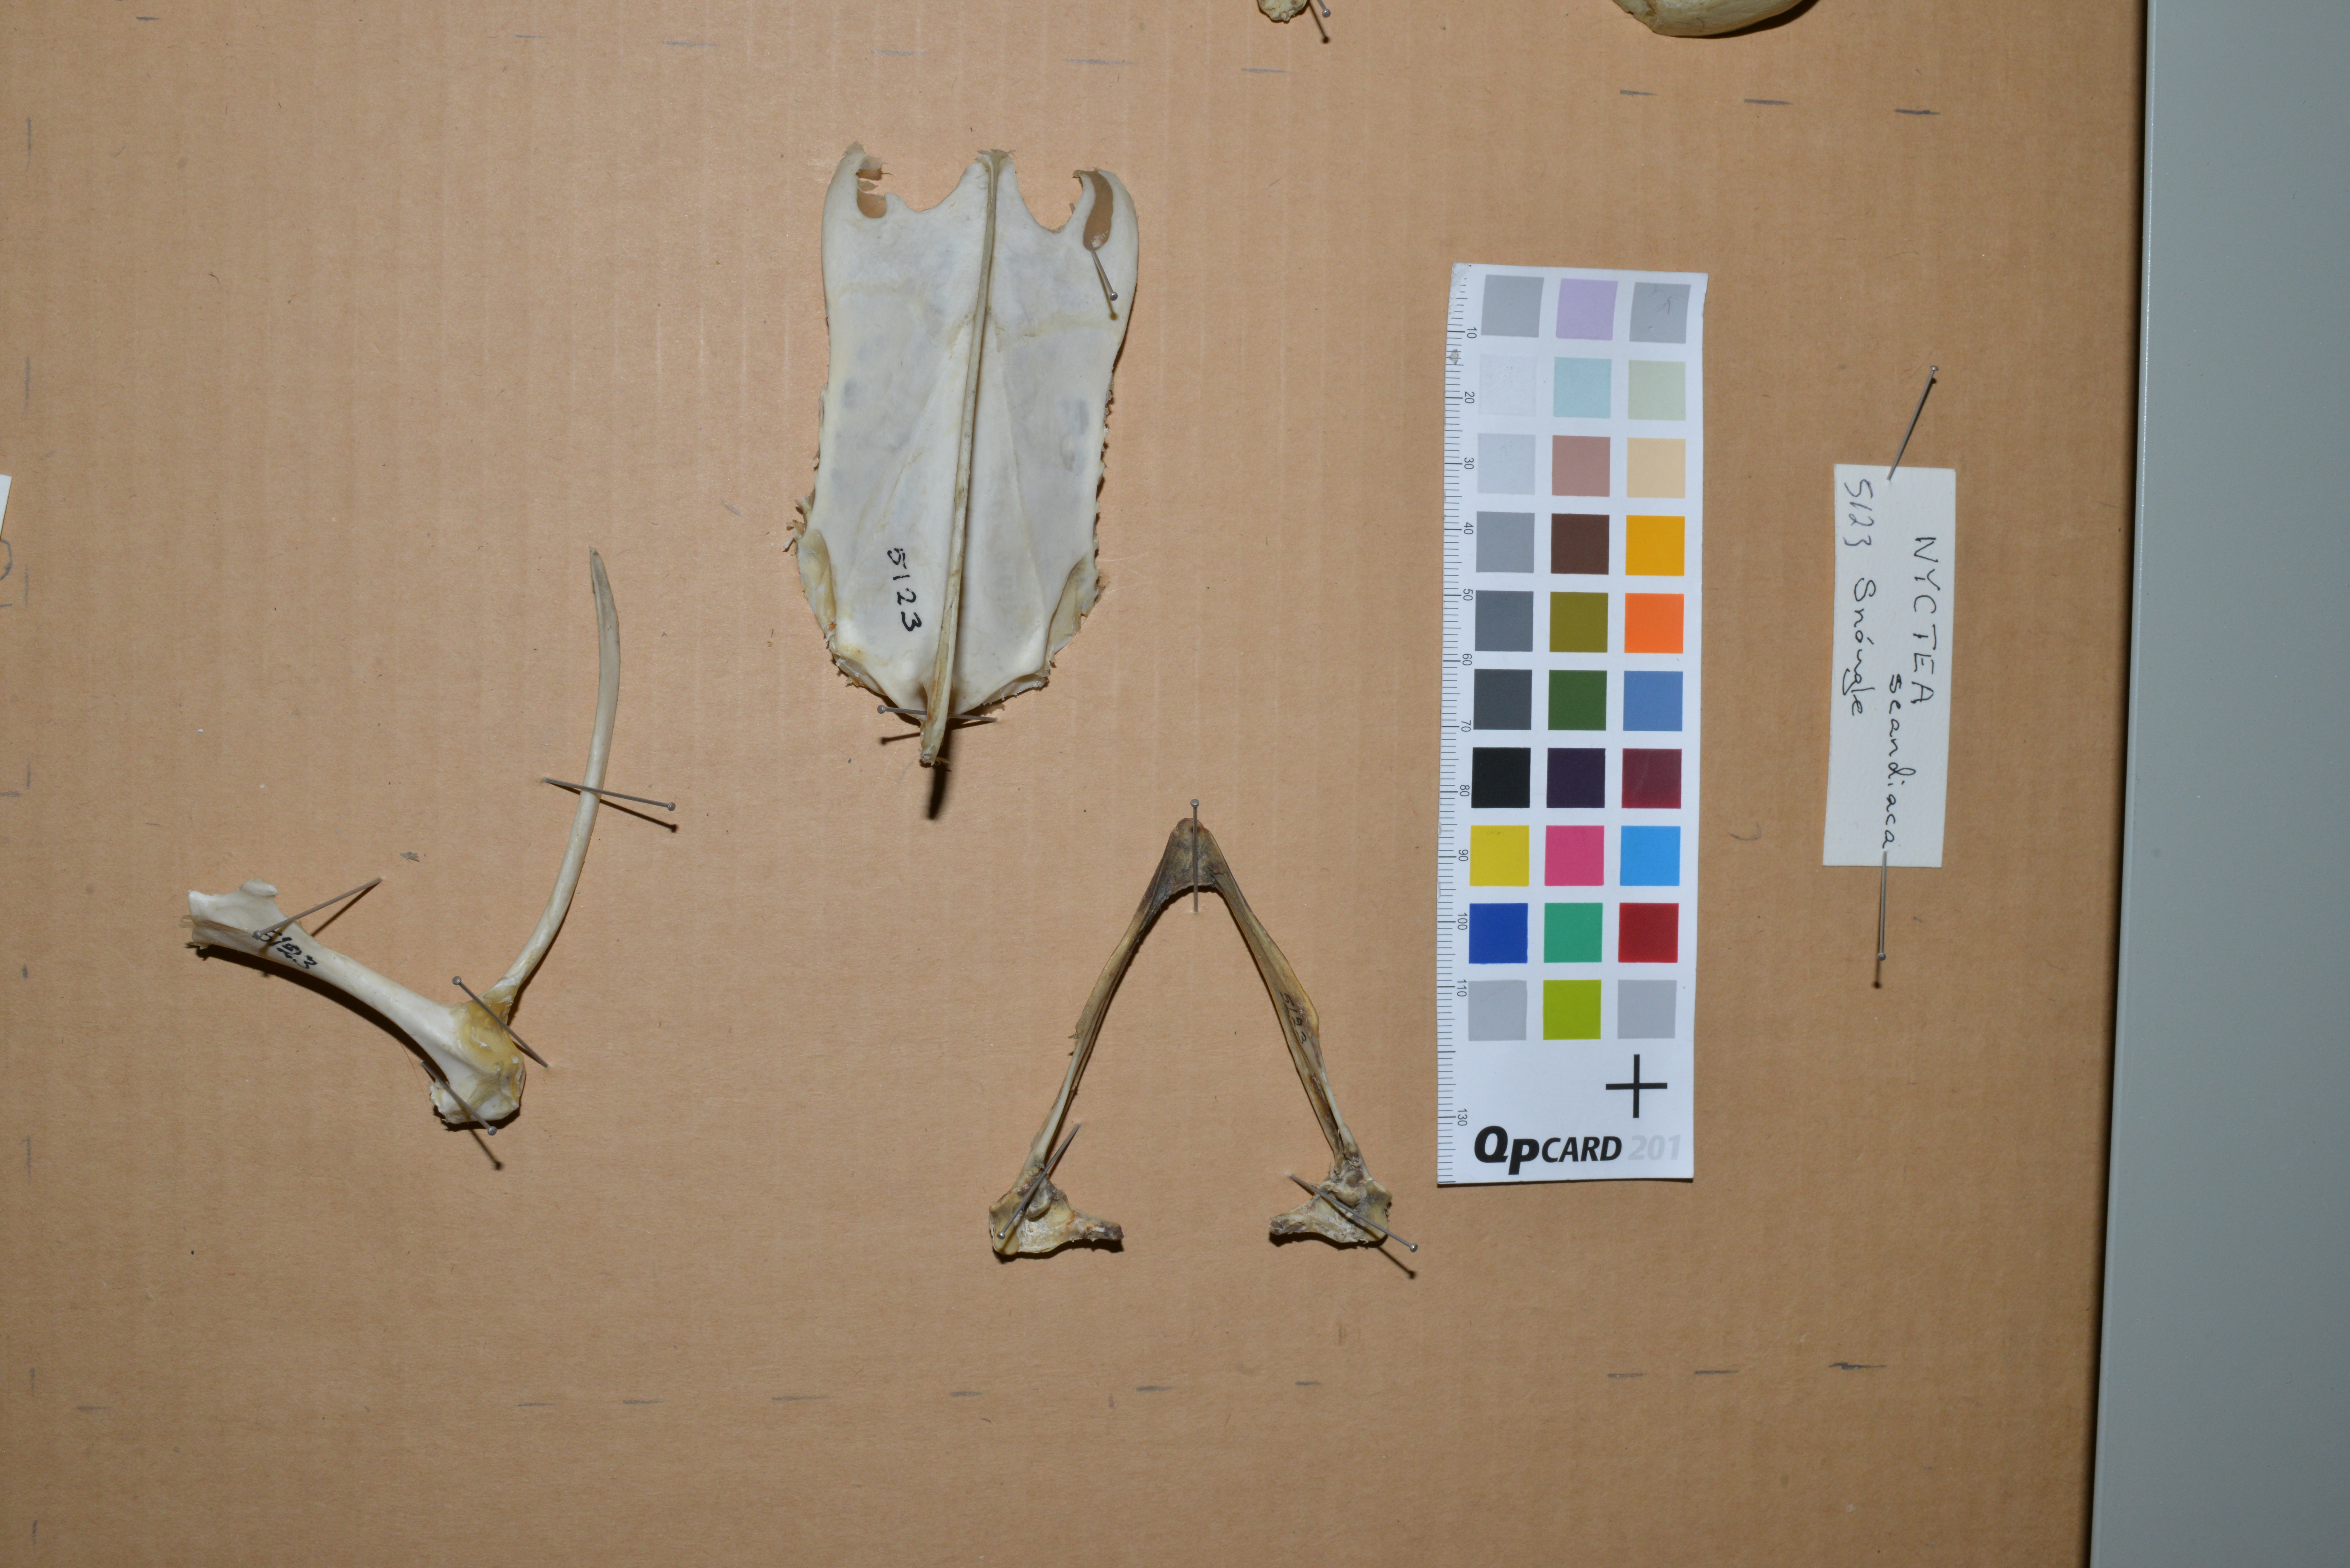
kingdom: Animalia
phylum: Chordata
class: Aves
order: Strigiformes
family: Strigidae
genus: Bubo
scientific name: Bubo scandiacus
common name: Snowy owl
